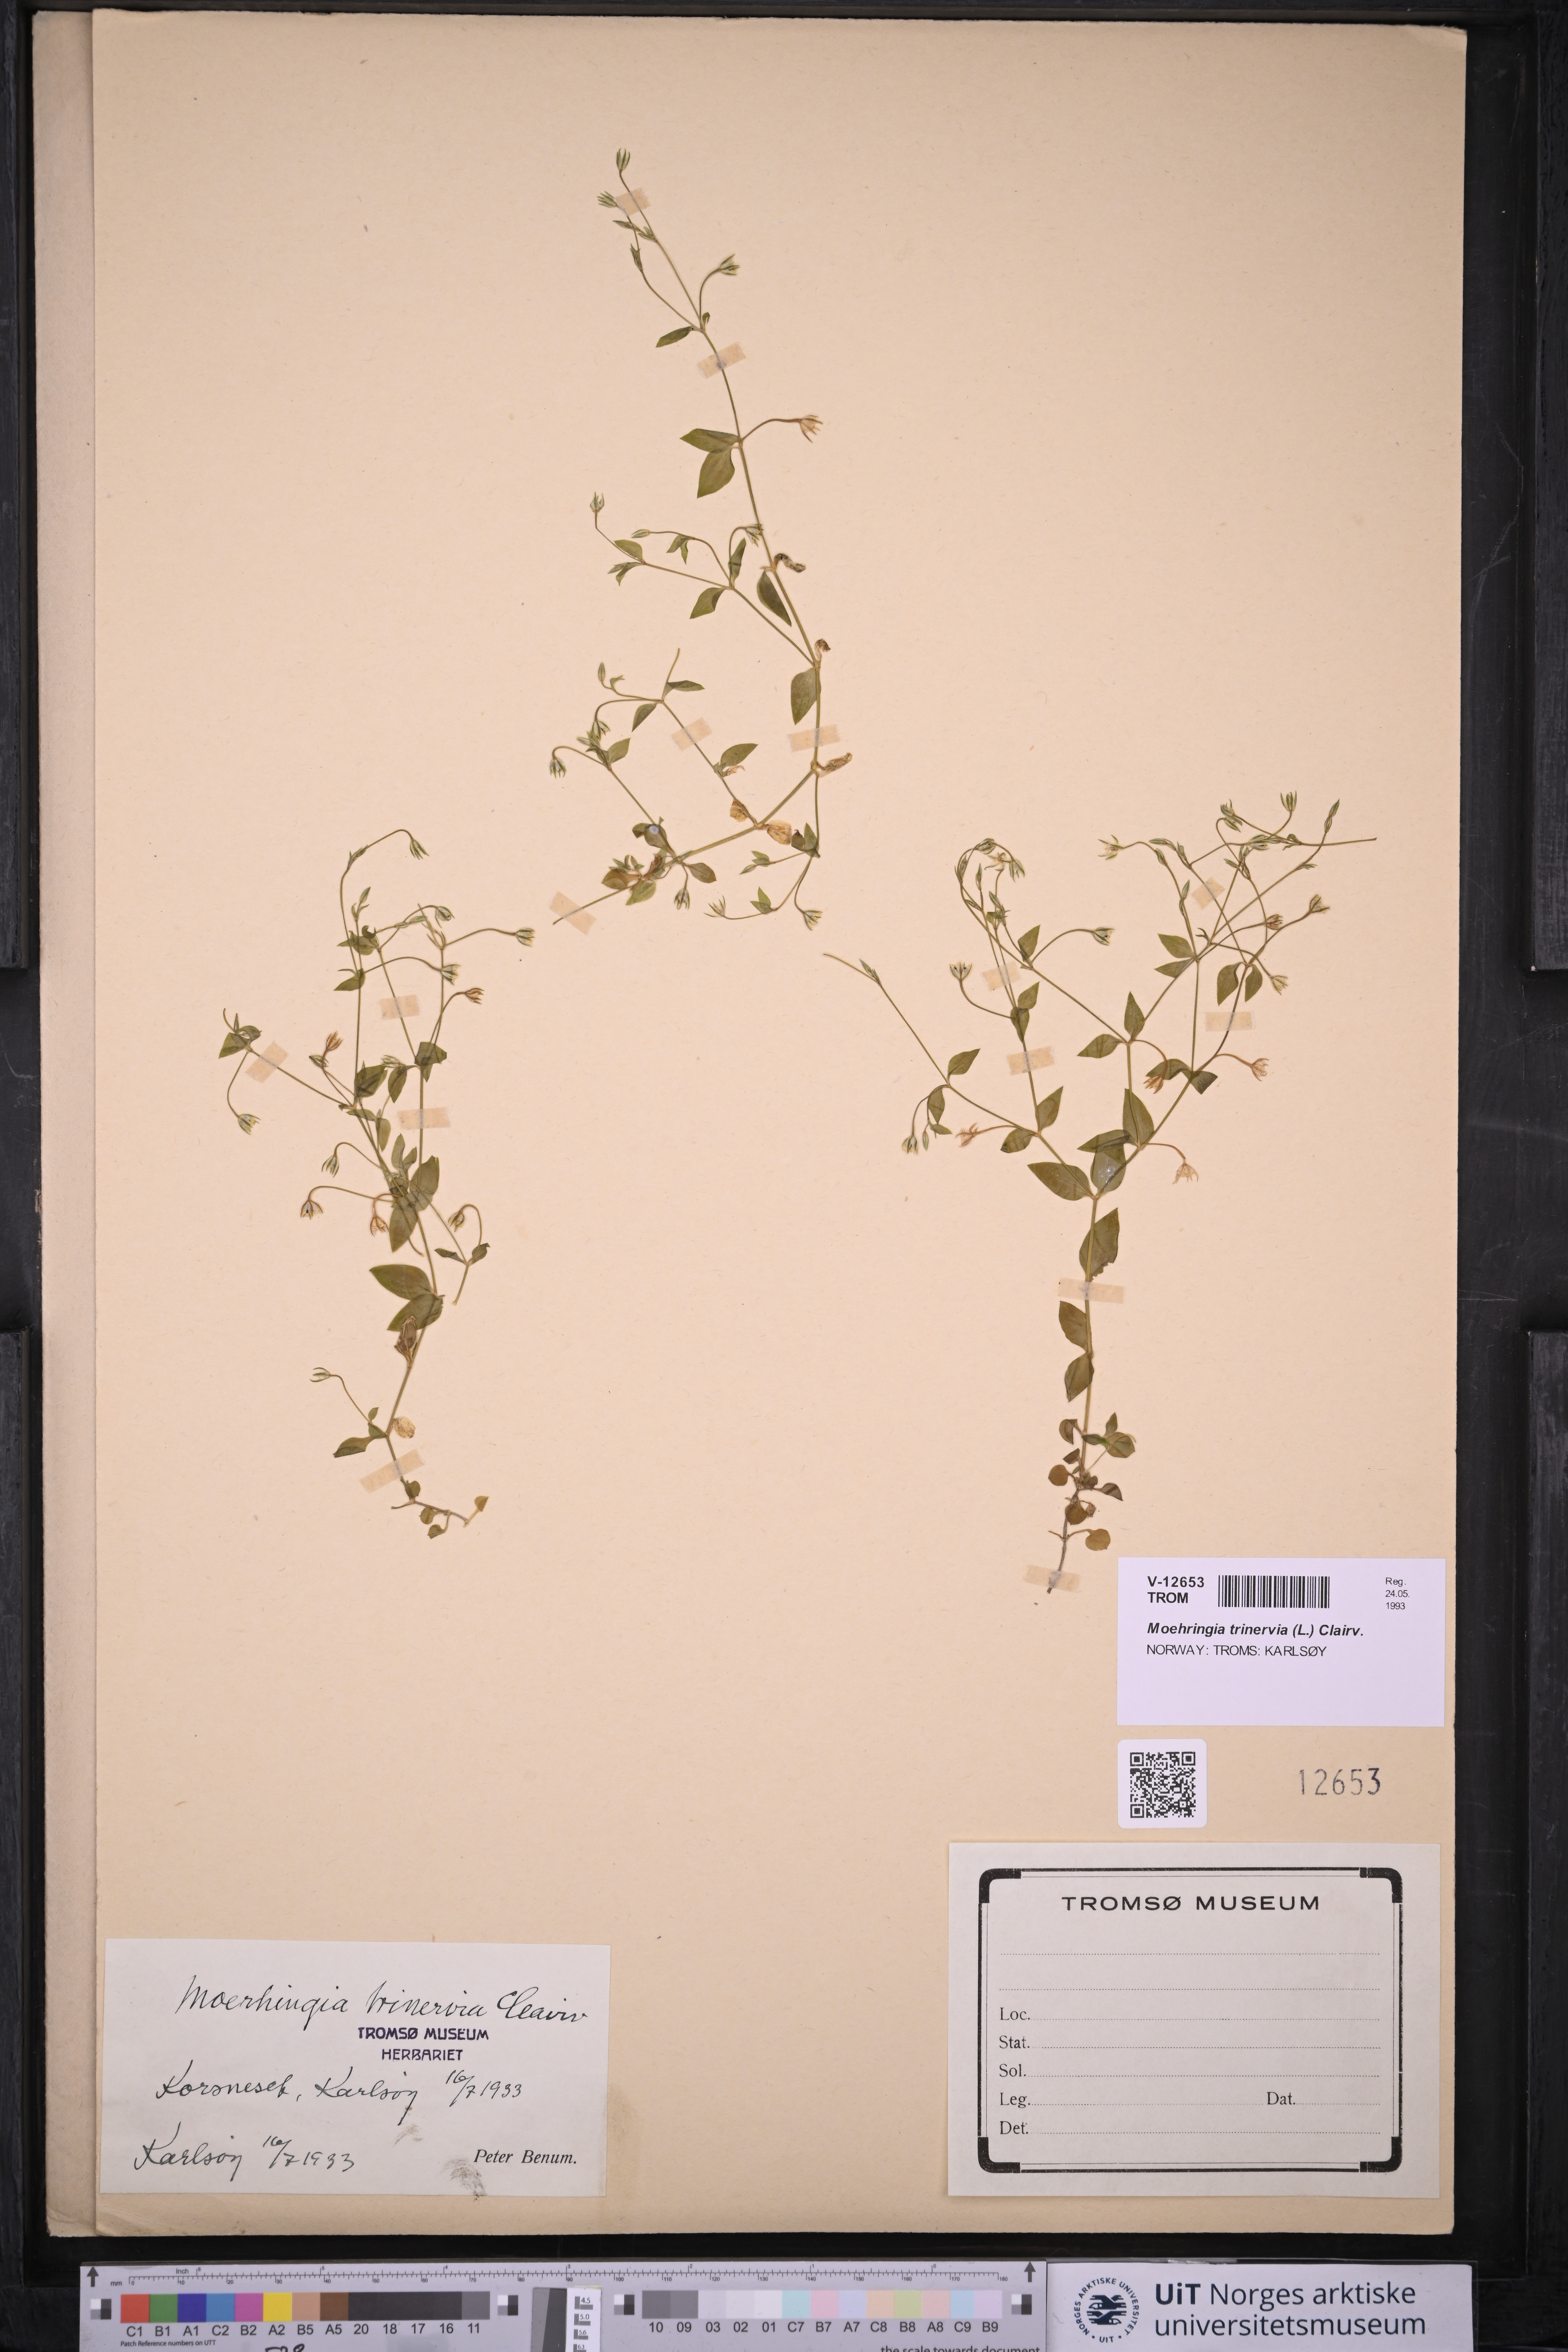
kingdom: Plantae
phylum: Tracheophyta
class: Magnoliopsida
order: Caryophyllales
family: Caryophyllaceae
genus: Moehringia
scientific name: Moehringia trinervia
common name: Three-nerved sandwort
